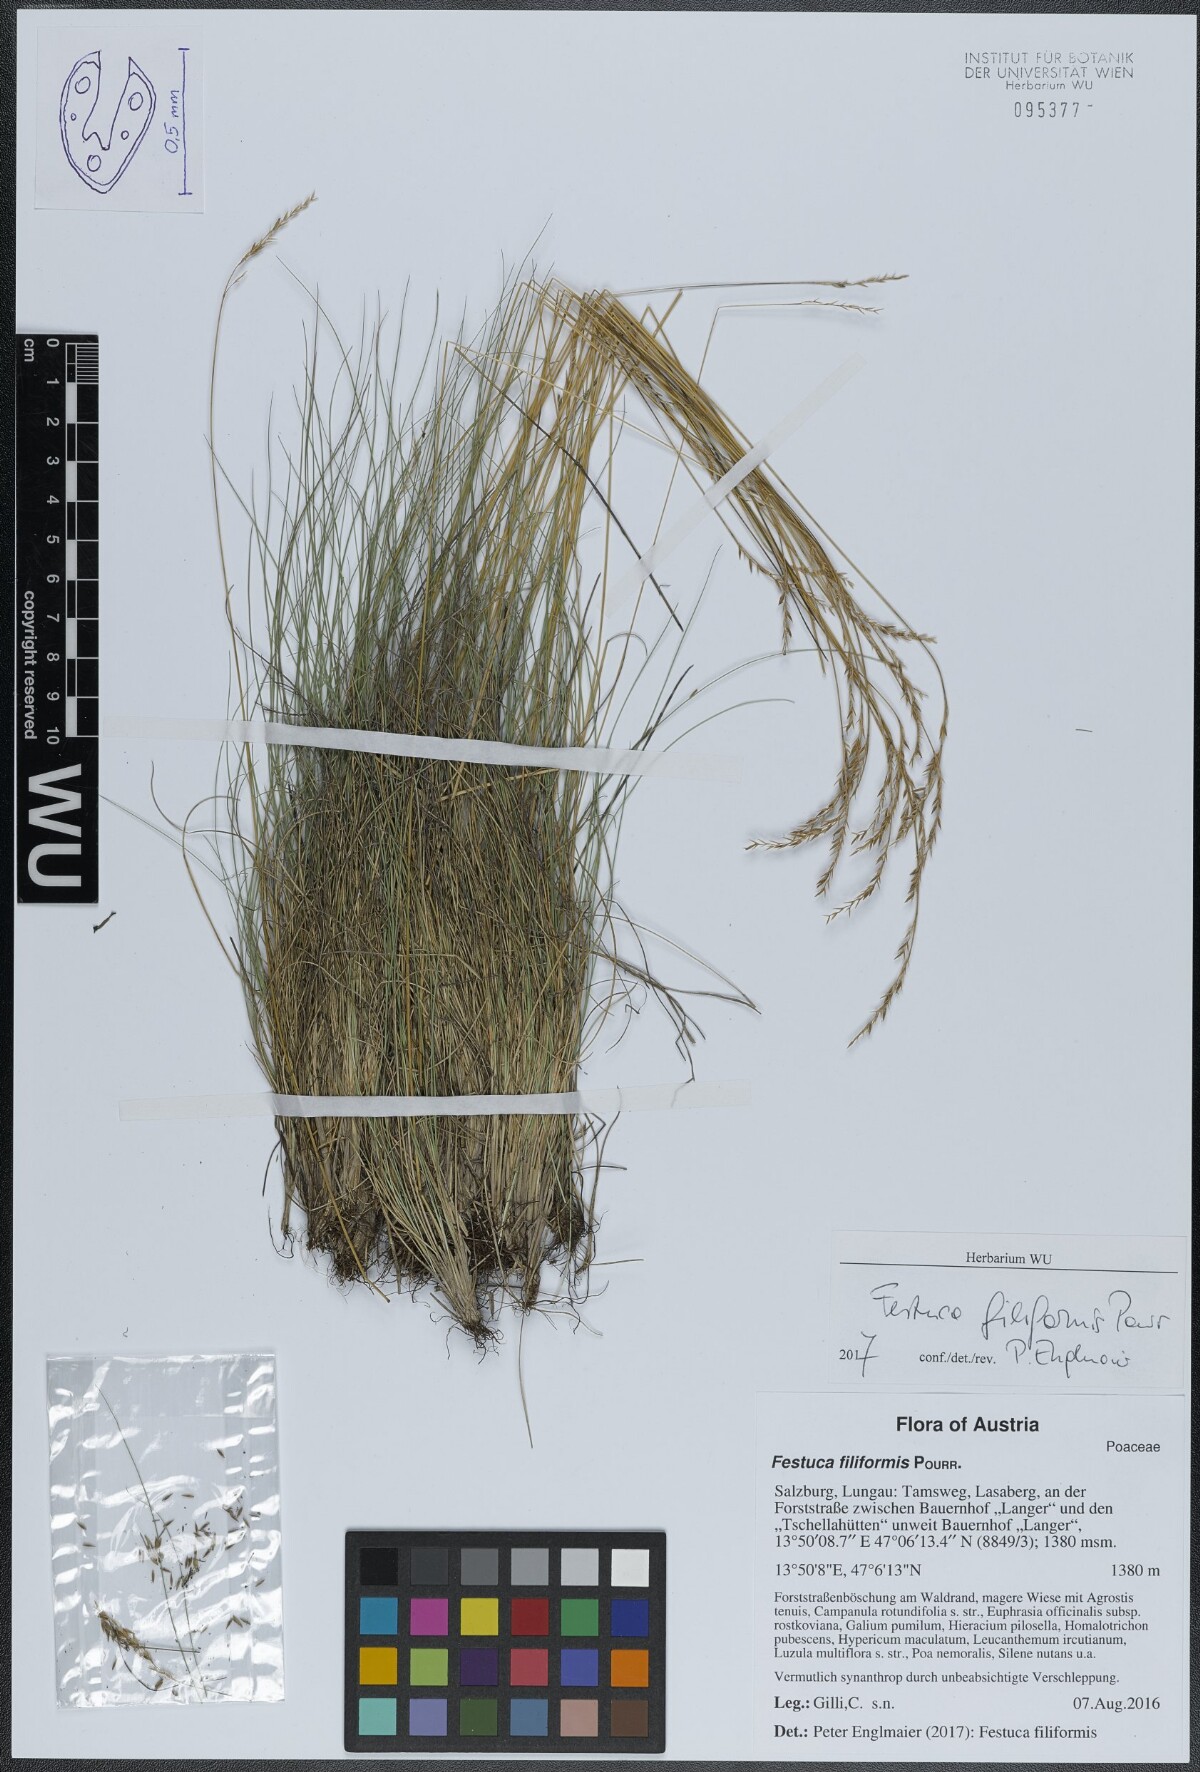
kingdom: Plantae
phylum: Tracheophyta
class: Liliopsida
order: Poales
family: Poaceae
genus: Festuca
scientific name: Festuca filiformis
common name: Fine-leaved sheep's-fescue
